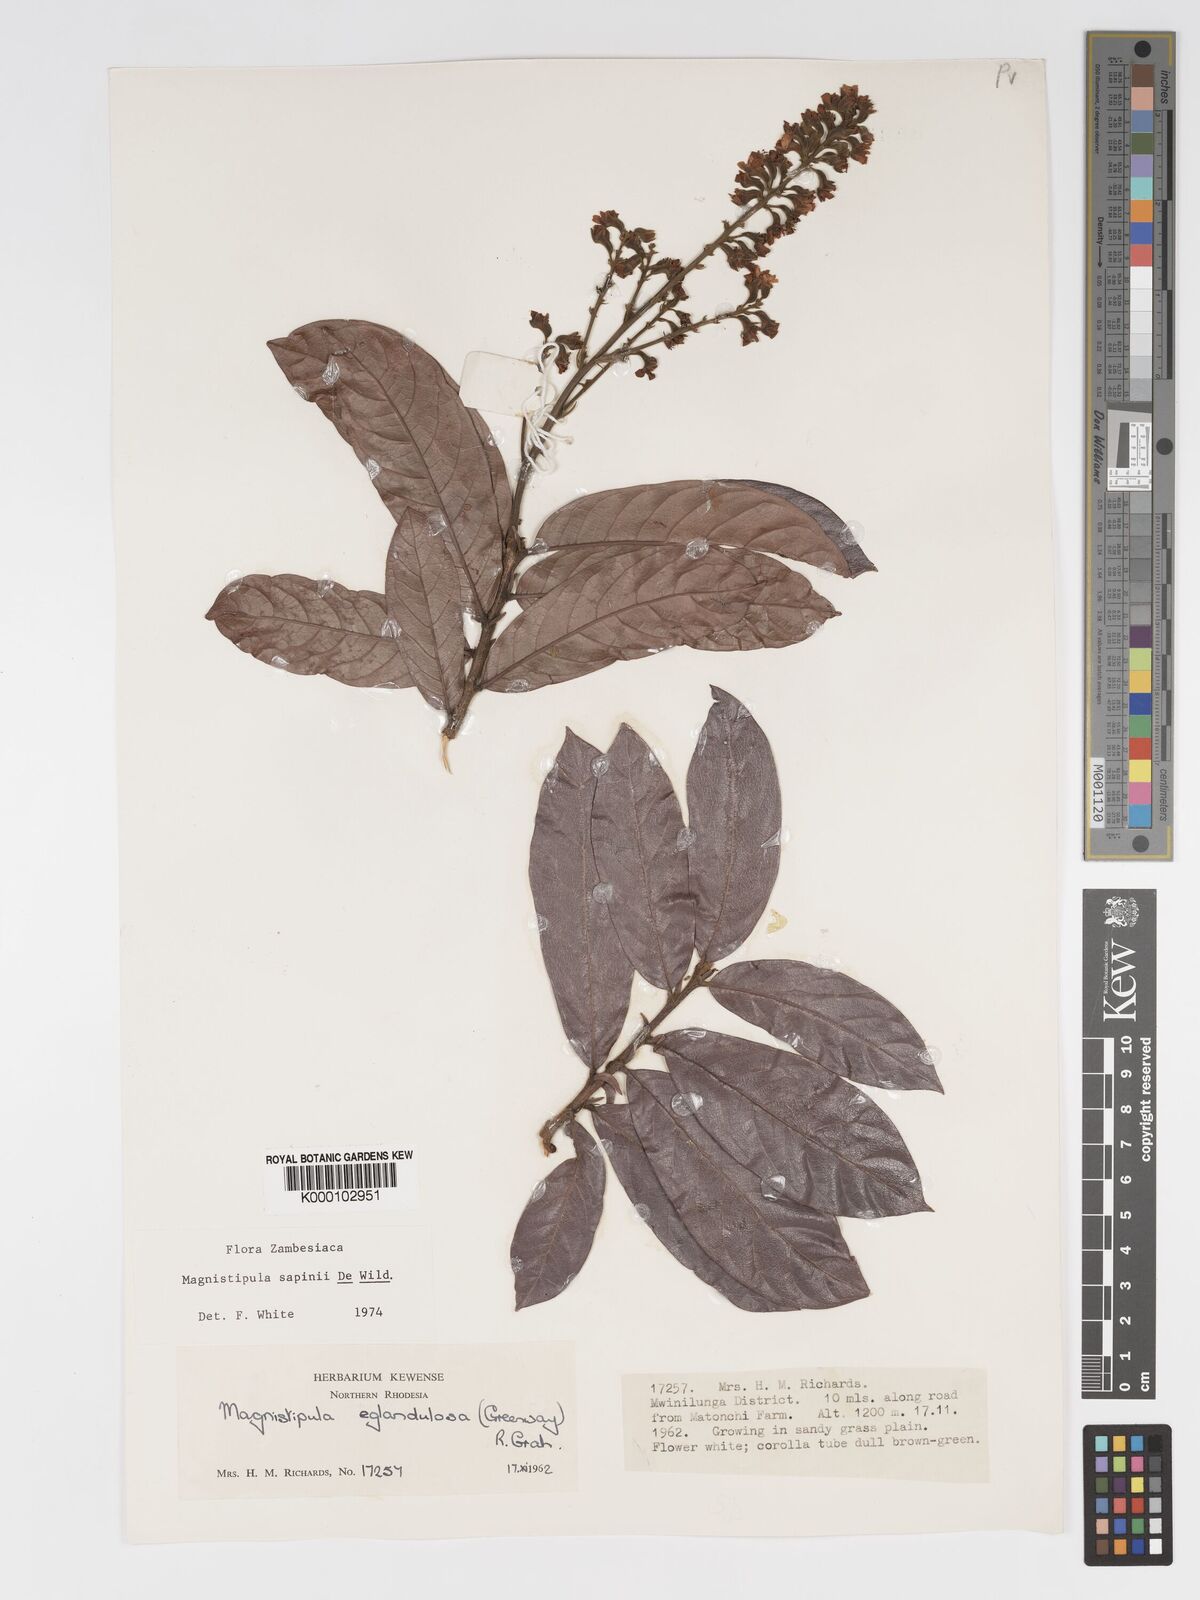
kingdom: Plantae
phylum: Tracheophyta
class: Magnoliopsida
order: Malpighiales
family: Chrysobalanaceae
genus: Magnistipula
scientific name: Magnistipula sapinii
